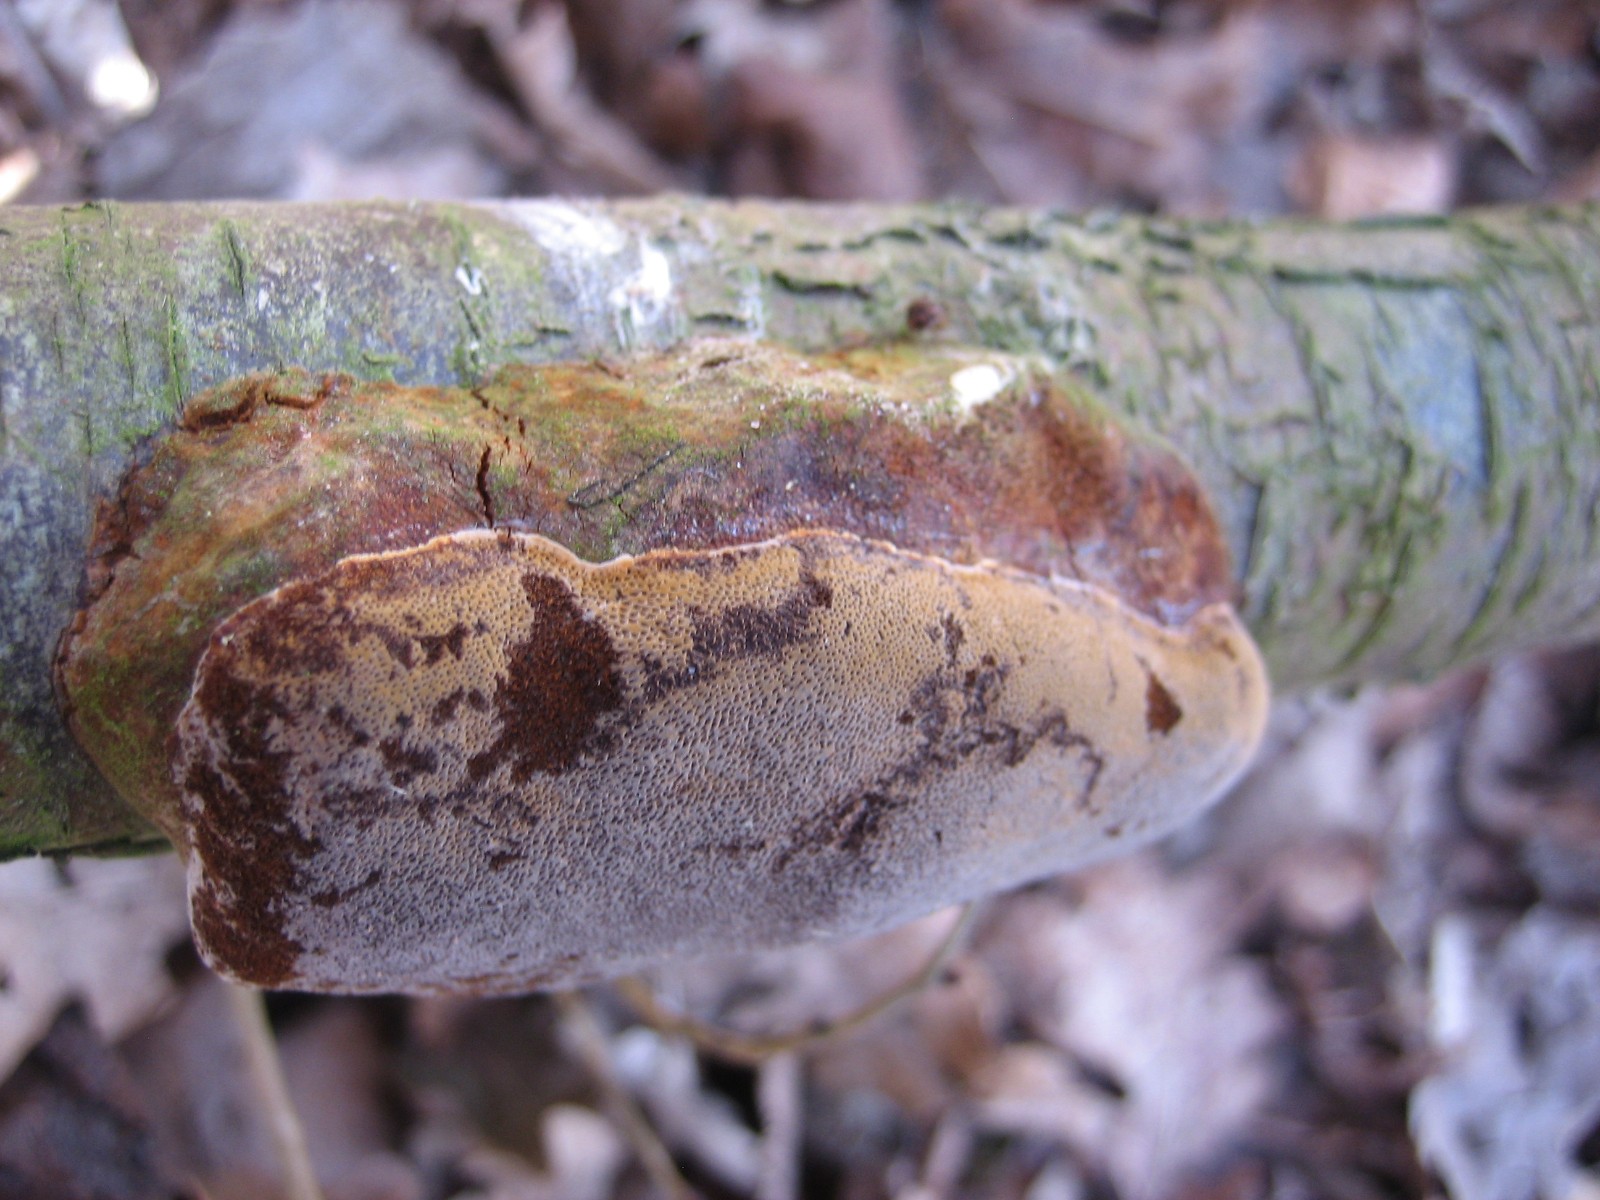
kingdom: Fungi
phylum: Basidiomycota
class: Agaricomycetes
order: Hymenochaetales
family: Hymenochaetaceae
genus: Phellinus
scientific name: Phellinus pomaceus
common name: blomme-ildporesvamp
